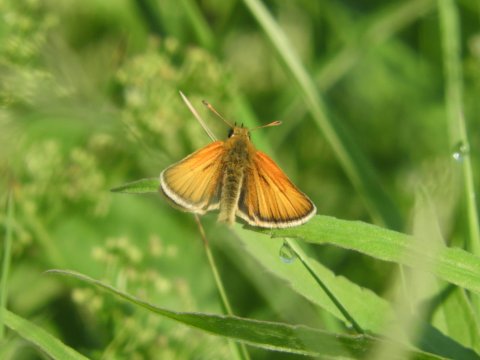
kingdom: Animalia
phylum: Arthropoda
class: Insecta
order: Lepidoptera
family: Hesperiidae
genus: Thymelicus
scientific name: Thymelicus lineola
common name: European Skipper
